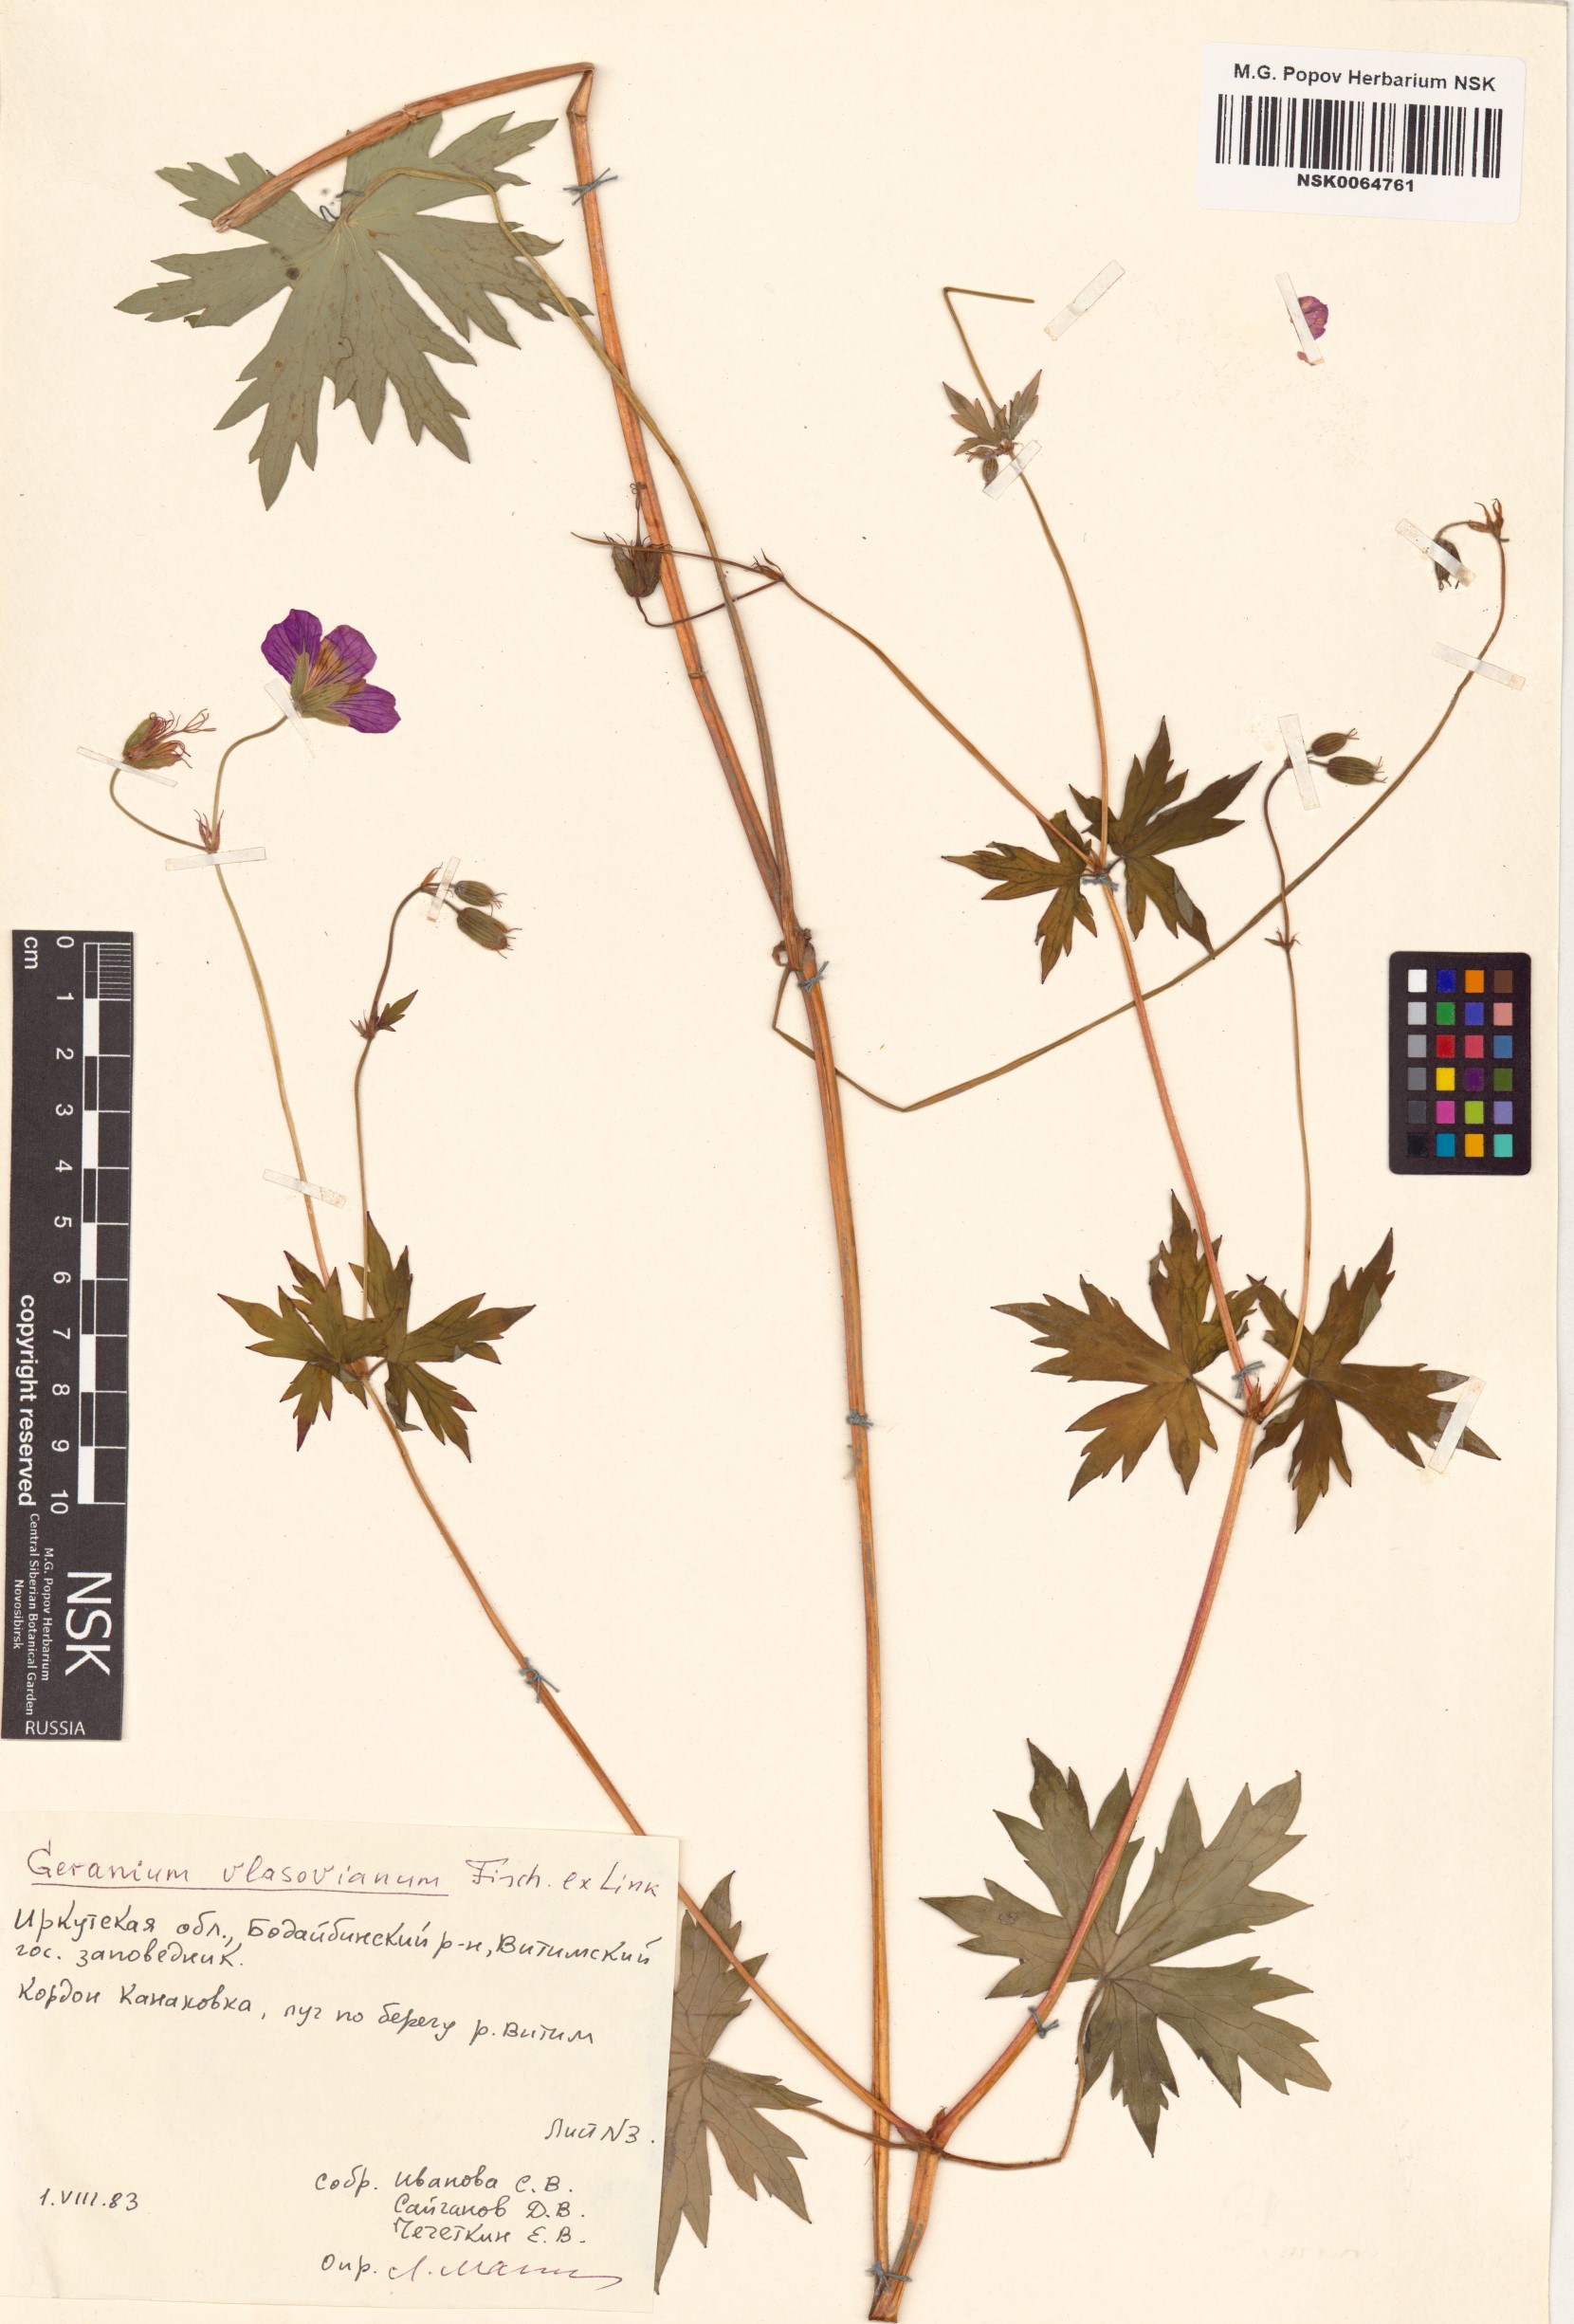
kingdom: Plantae
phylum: Tracheophyta
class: Magnoliopsida
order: Geraniales
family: Geraniaceae
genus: Geranium
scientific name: Geranium wlassovianum
